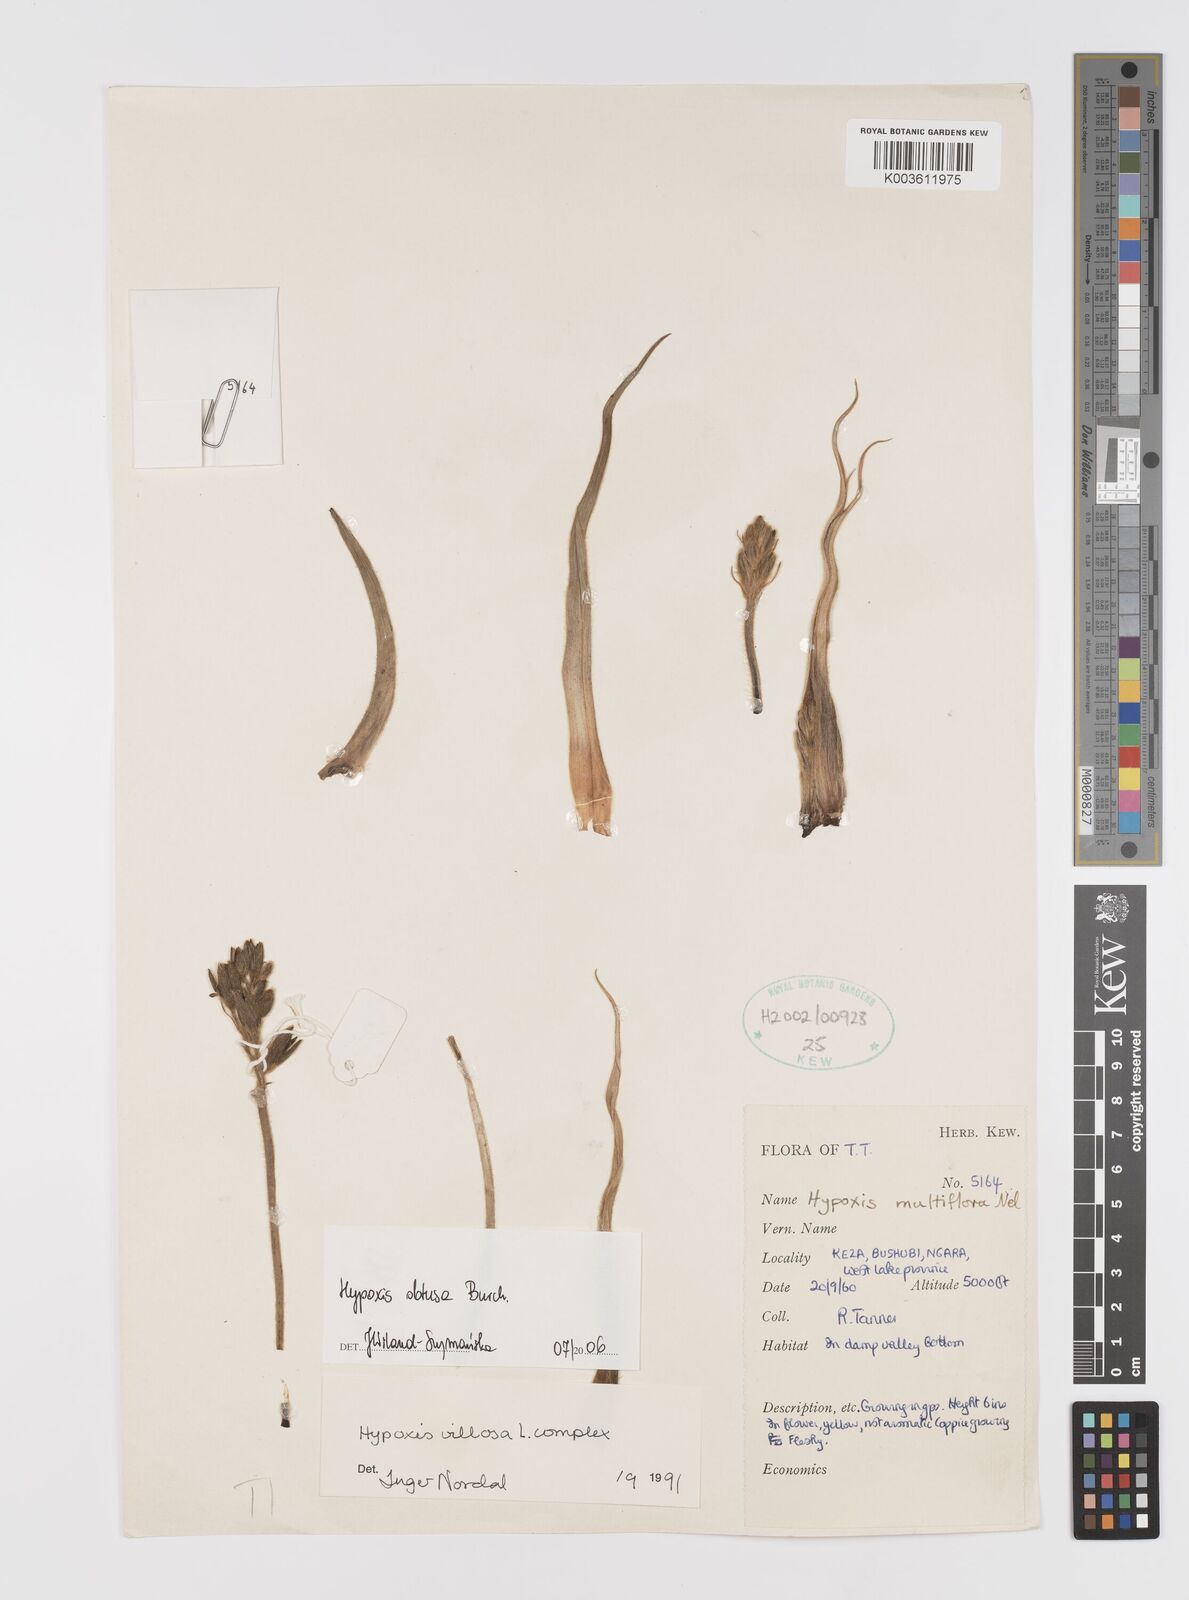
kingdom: Plantae
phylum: Tracheophyta
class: Liliopsida
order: Asparagales
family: Hypoxidaceae
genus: Hypoxis
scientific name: Hypoxis obtusa
